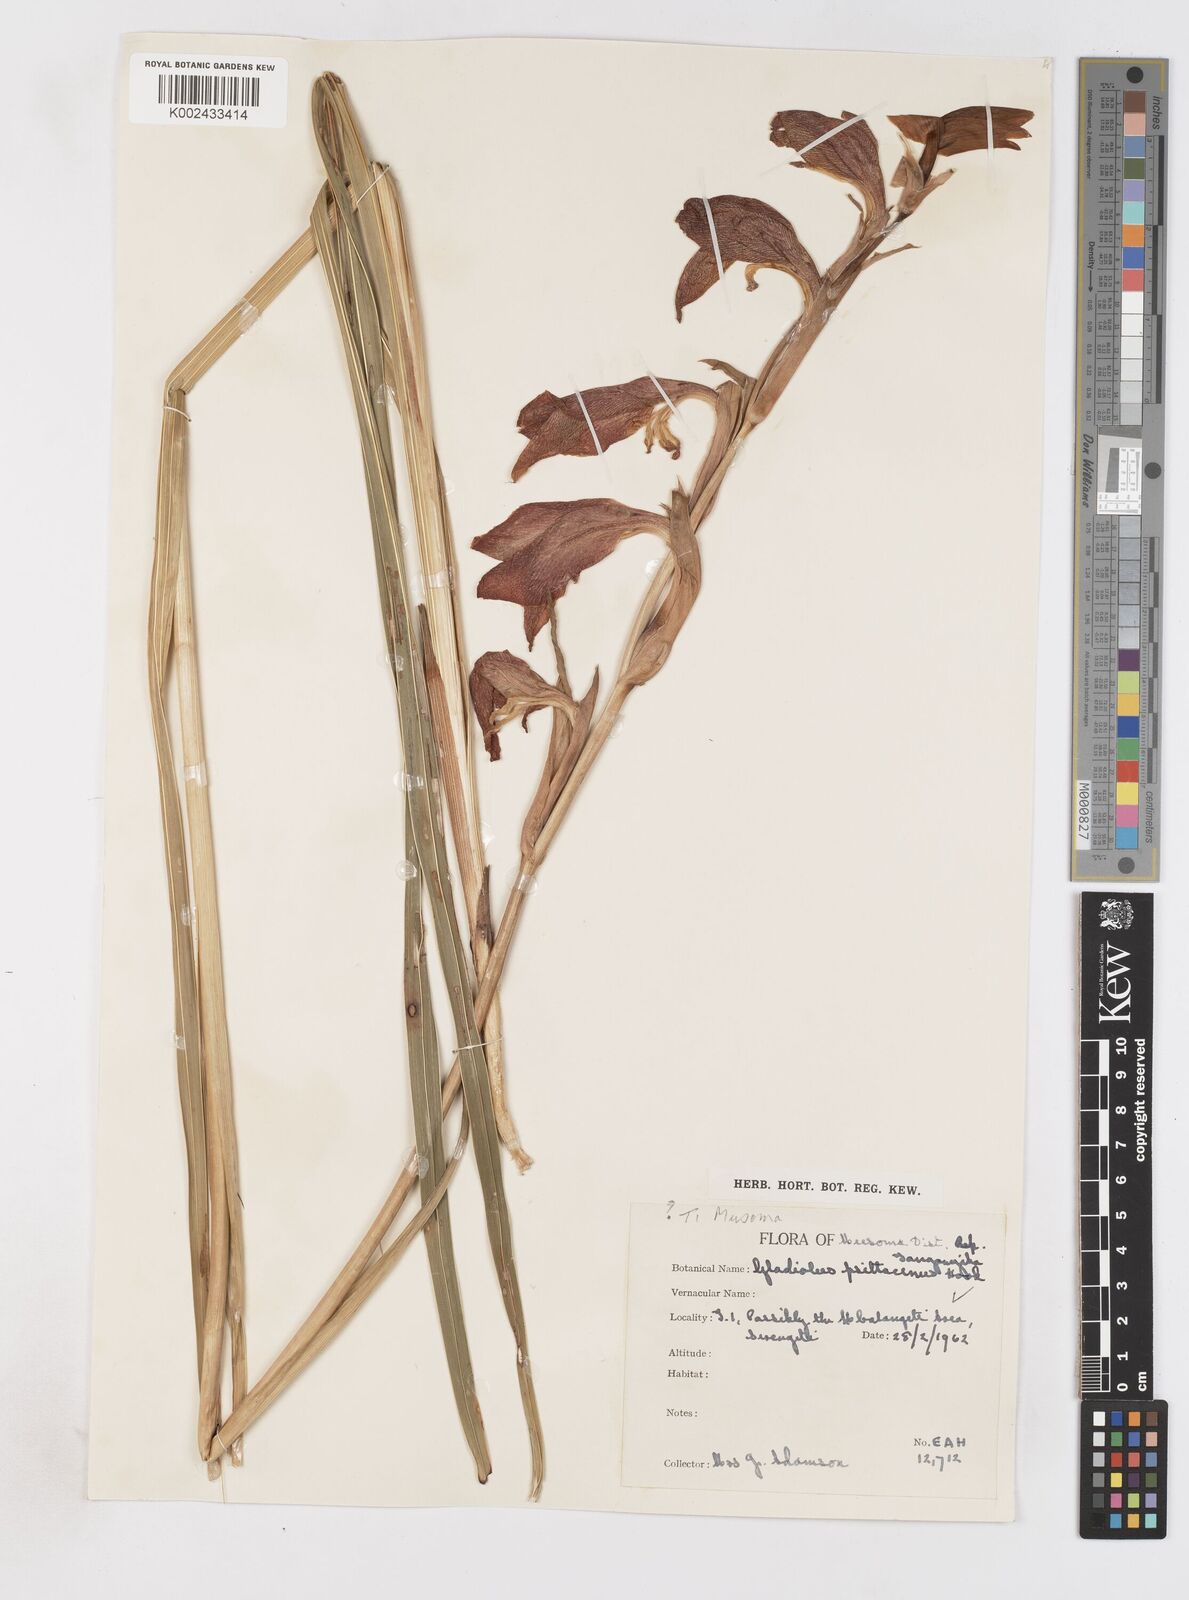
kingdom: Plantae
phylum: Tracheophyta
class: Liliopsida
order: Asparagales
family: Iridaceae
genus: Gladiolus
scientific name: Gladiolus dalenii
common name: Cornflag
